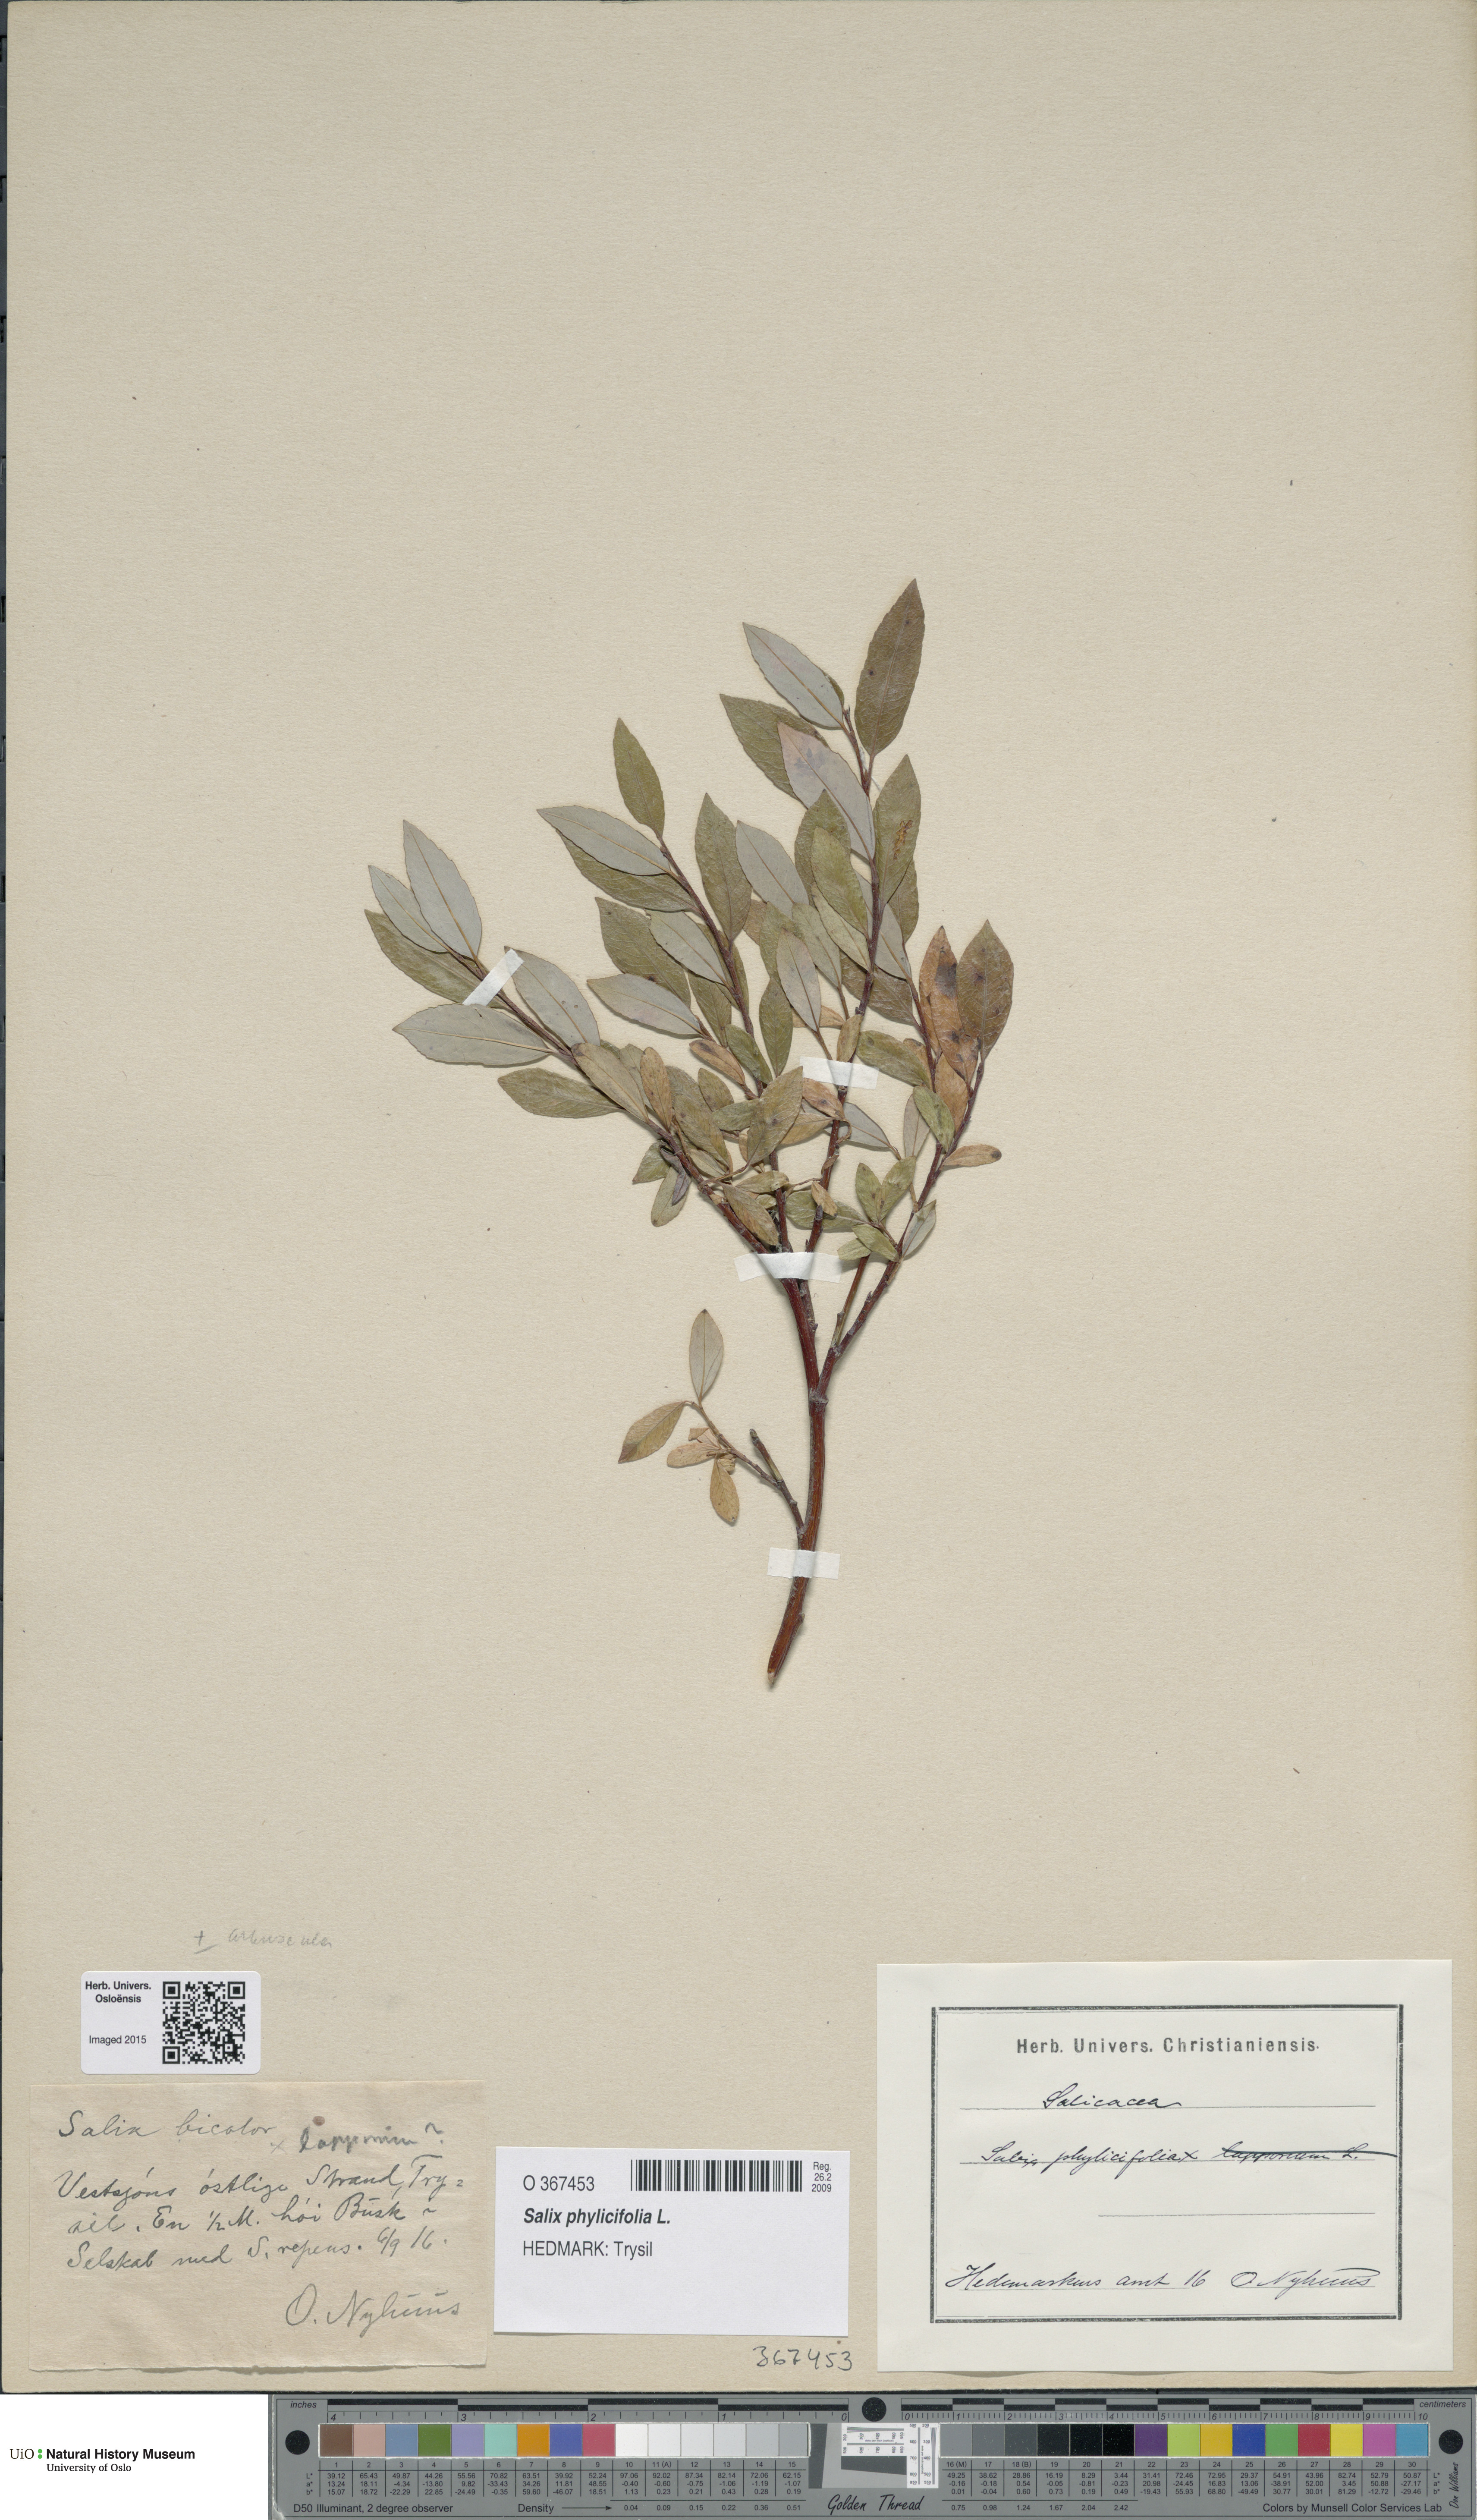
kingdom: Plantae
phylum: Tracheophyta
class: Magnoliopsida
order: Malpighiales
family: Salicaceae
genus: Salix
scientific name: Salix phylicifolia
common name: Tea-leaved willow
